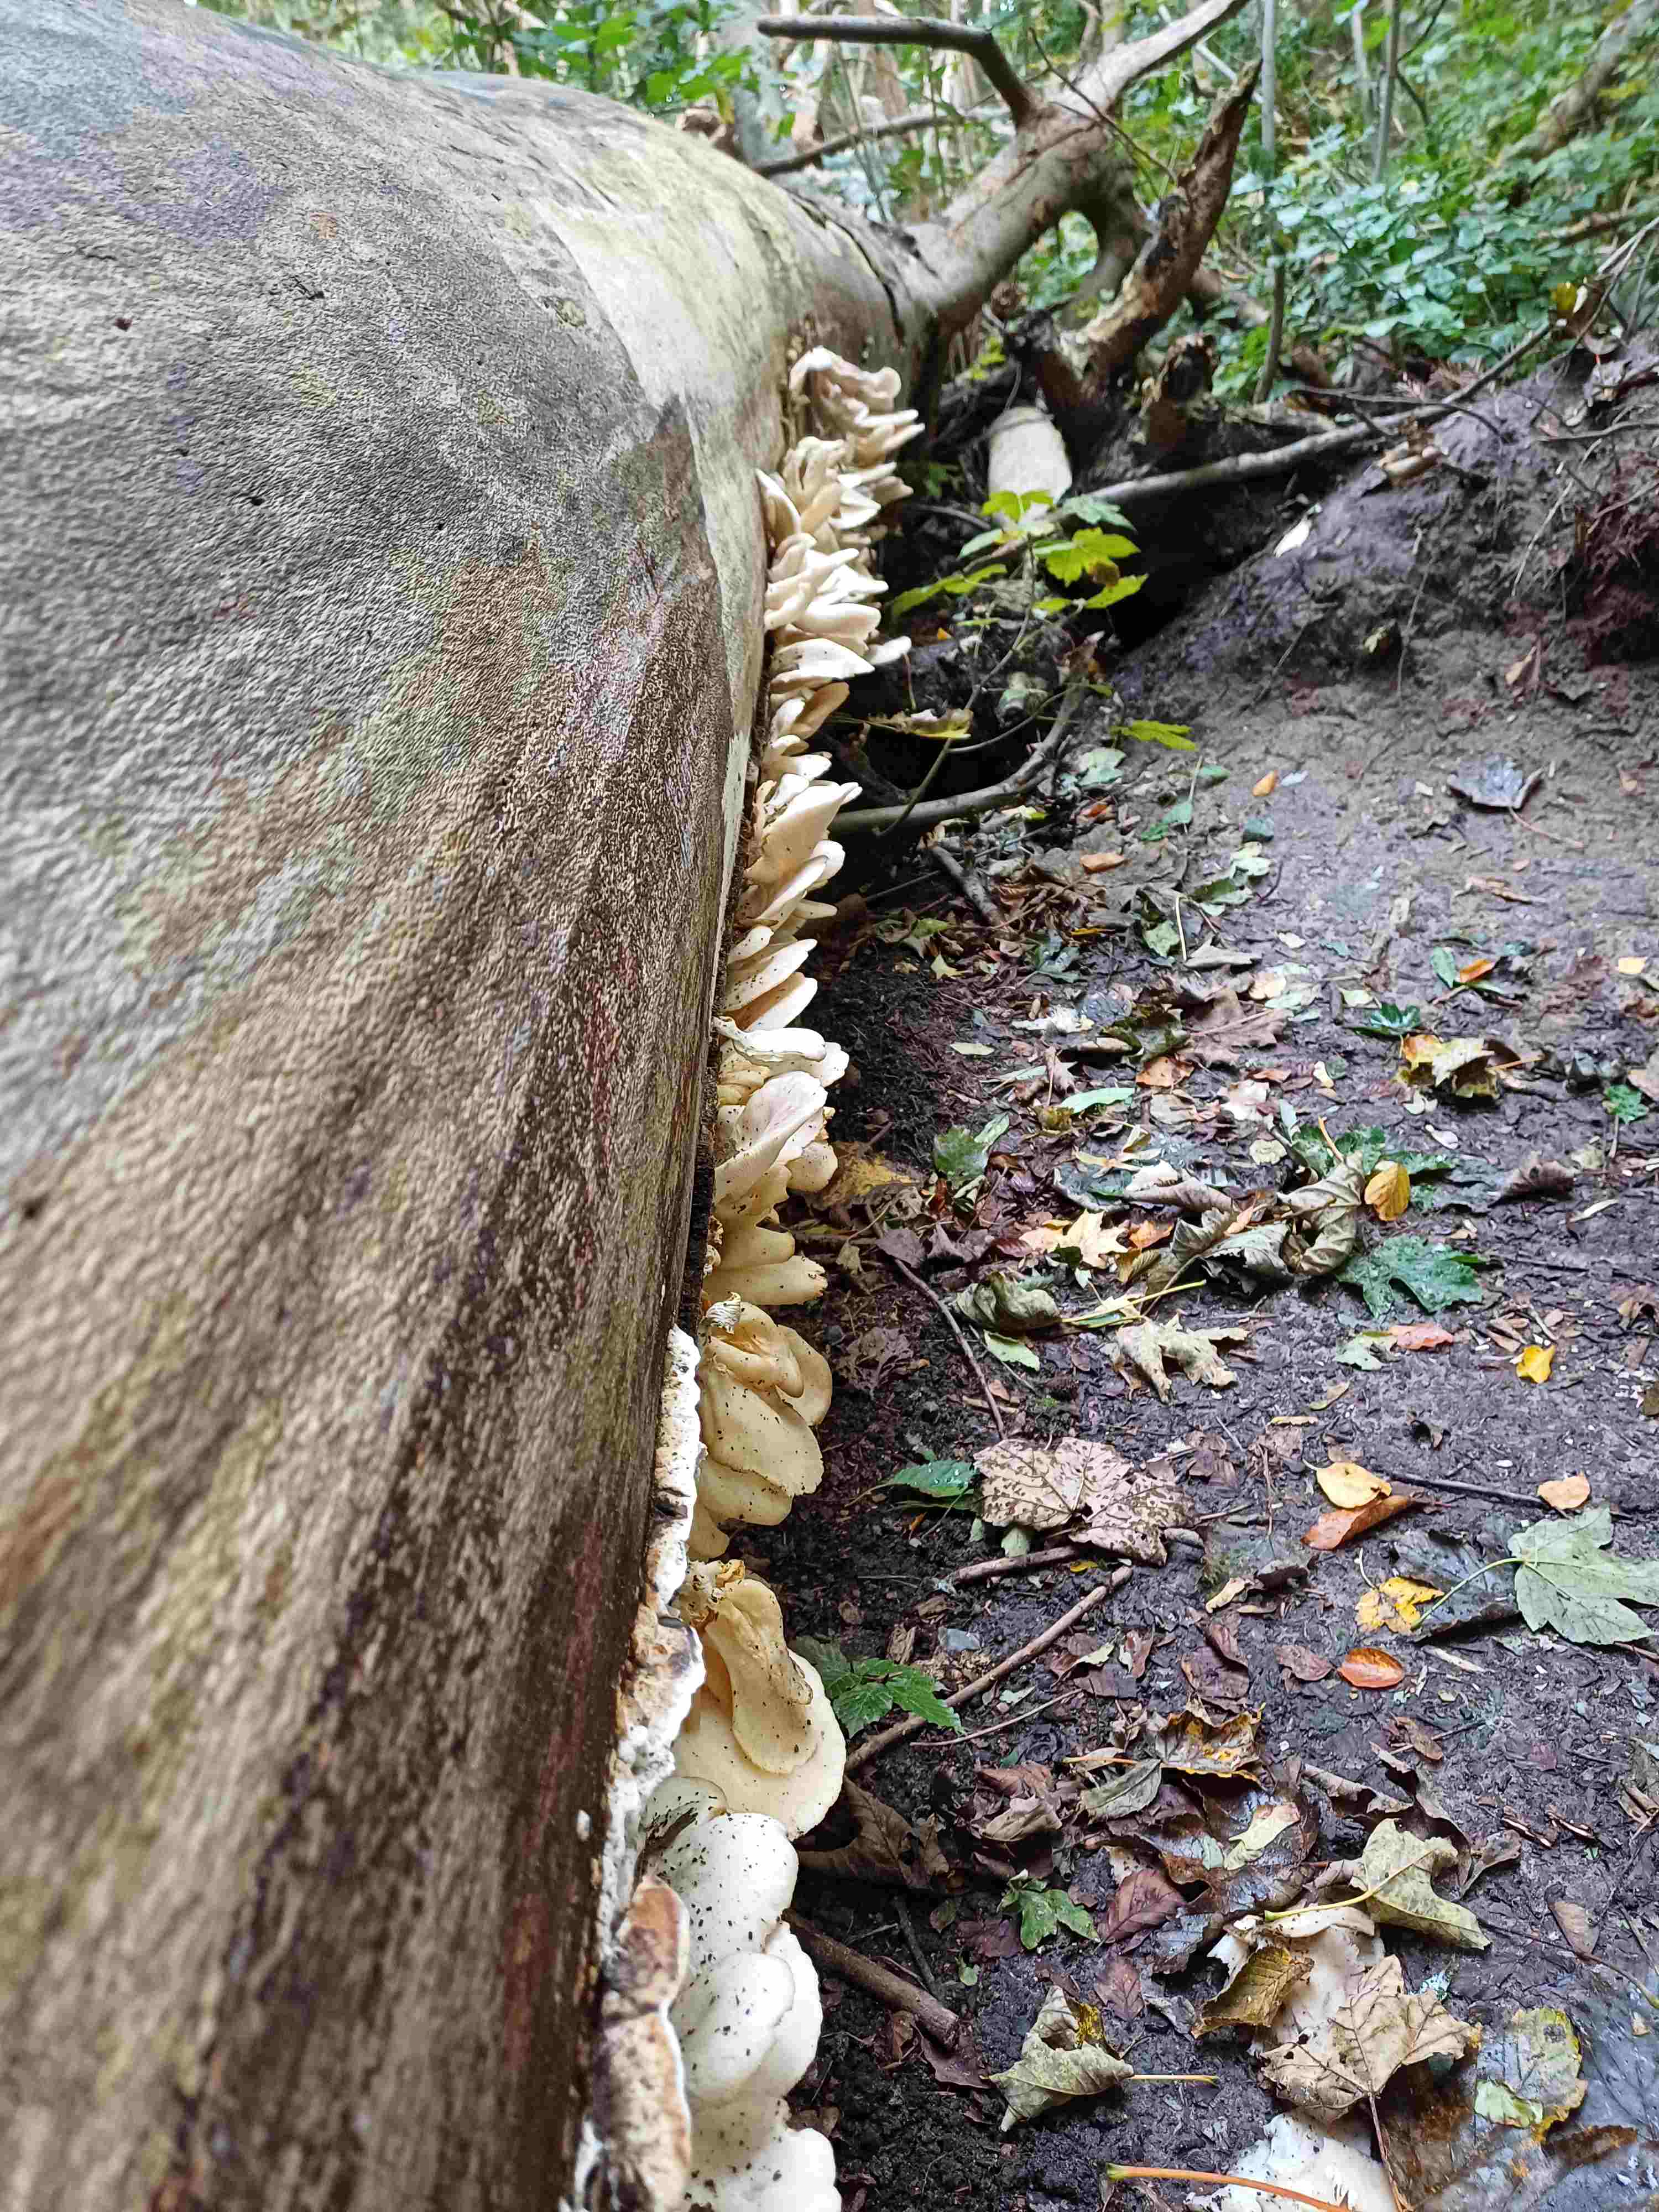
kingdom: Fungi
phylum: Basidiomycota
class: Agaricomycetes
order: Agaricales
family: Pleurotaceae
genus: Pleurotus
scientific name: Pleurotus pulmonarius
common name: sommer-østershat
